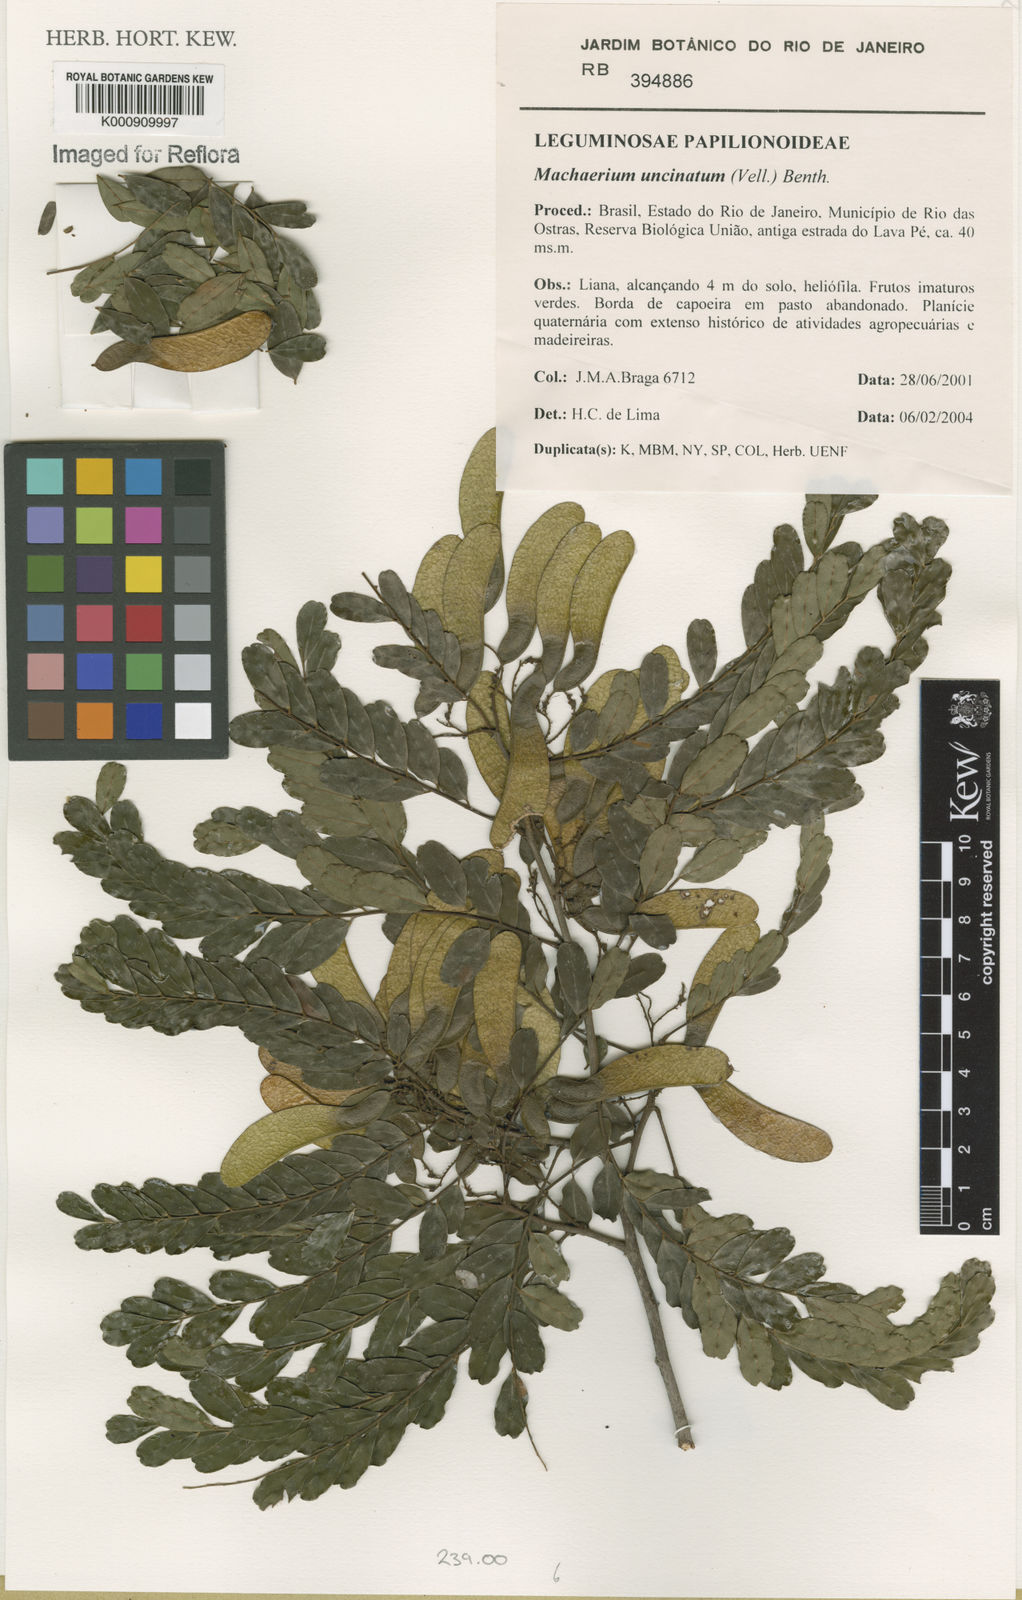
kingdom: Plantae
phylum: Tracheophyta
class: Magnoliopsida
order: Fabales
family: Fabaceae
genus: Machaerium
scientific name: Machaerium uncinatum
